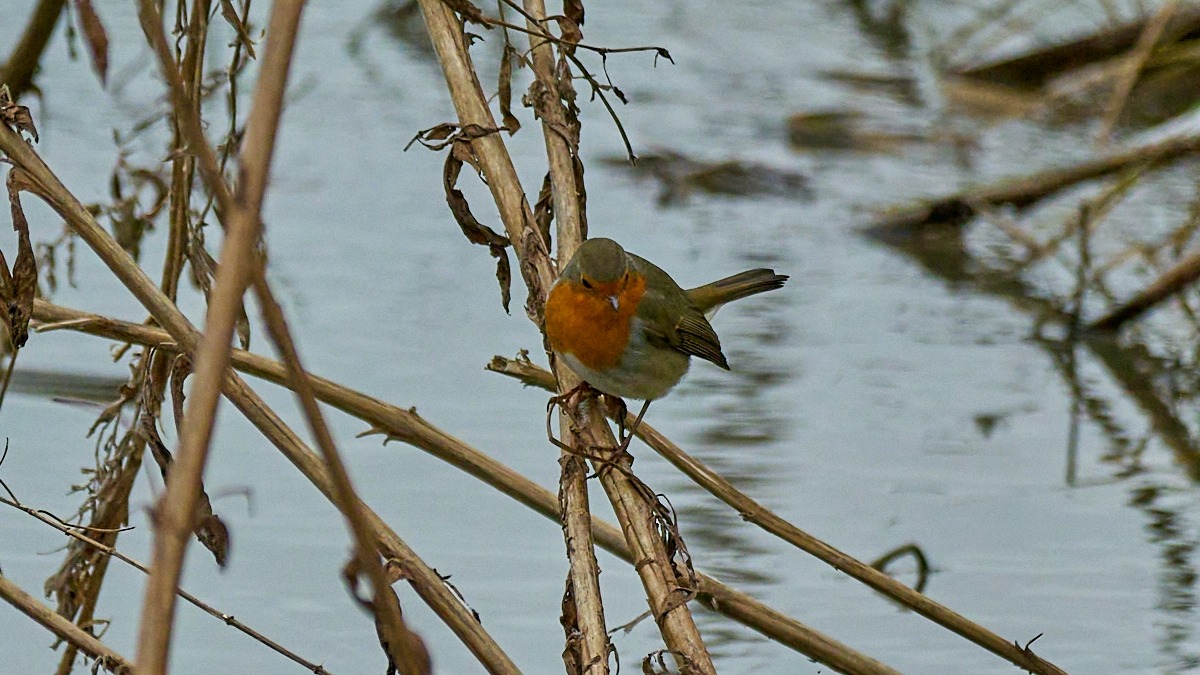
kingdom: Animalia
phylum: Chordata
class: Aves
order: Passeriformes
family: Muscicapidae
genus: Erithacus
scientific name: Erithacus rubecula
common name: Rødhals/rødkælk
